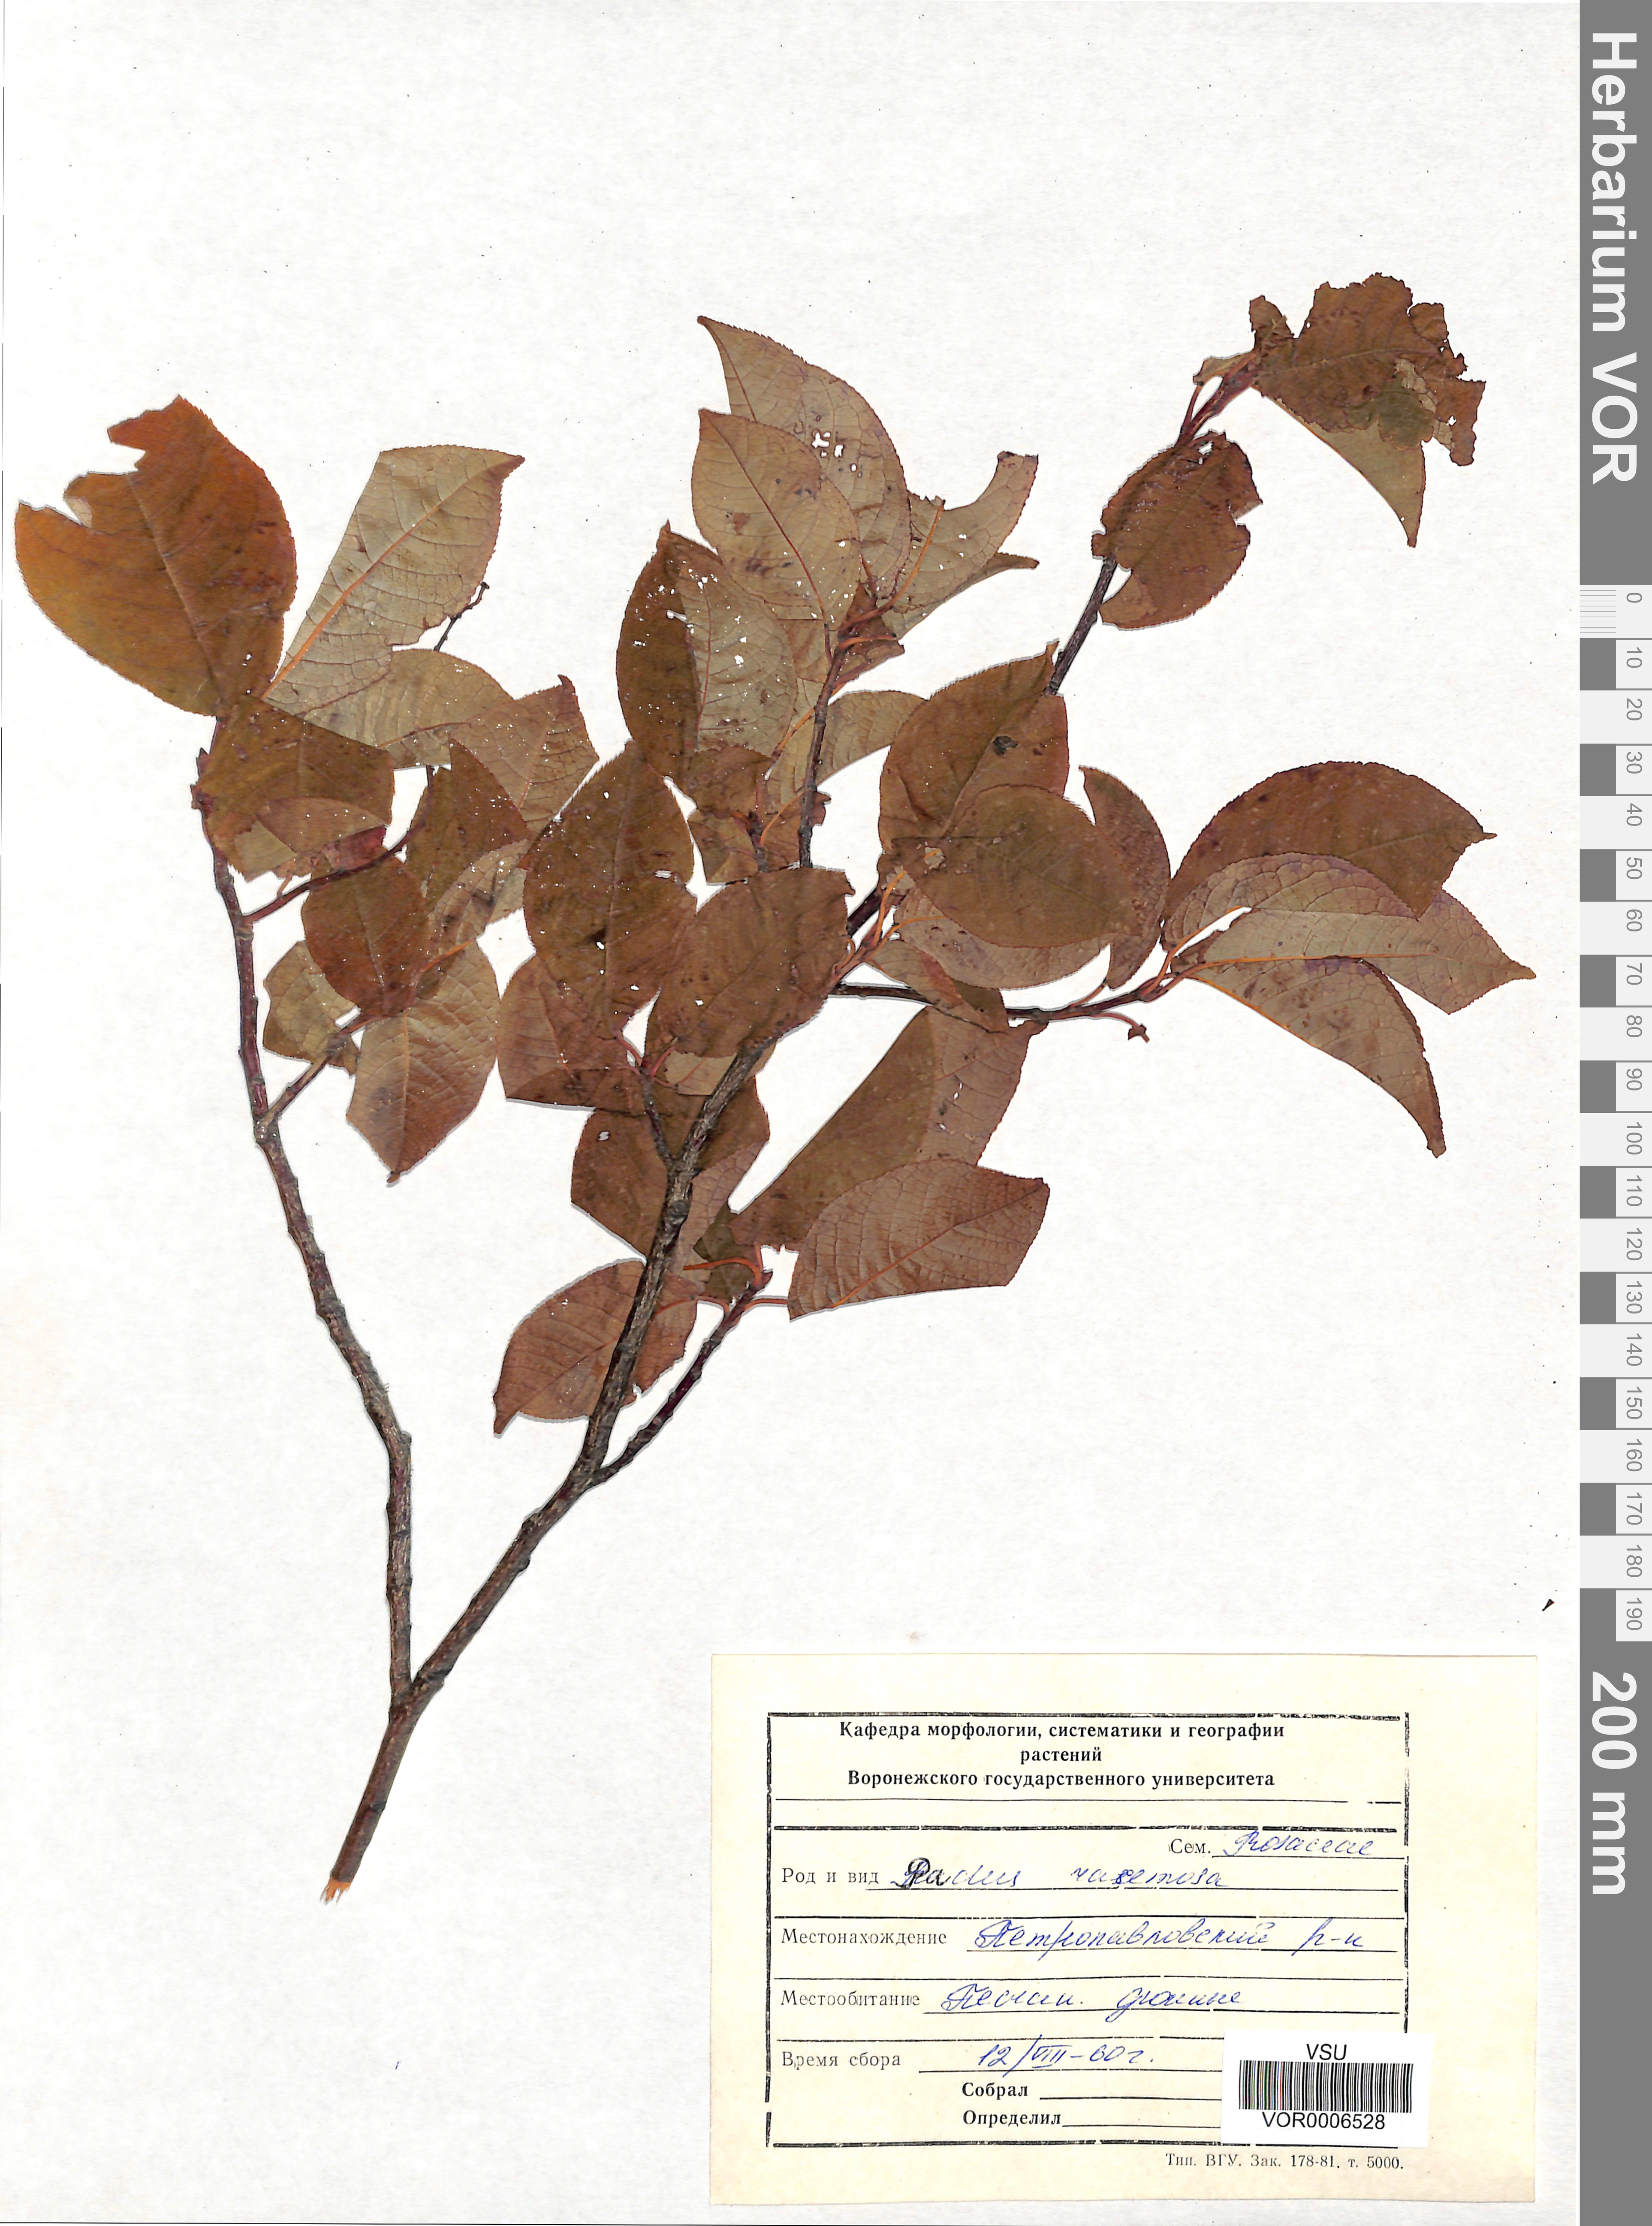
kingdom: Plantae
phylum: Tracheophyta
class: Magnoliopsida
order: Rosales
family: Rosaceae
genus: Prunus
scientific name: Prunus padus
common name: Bird cherry
